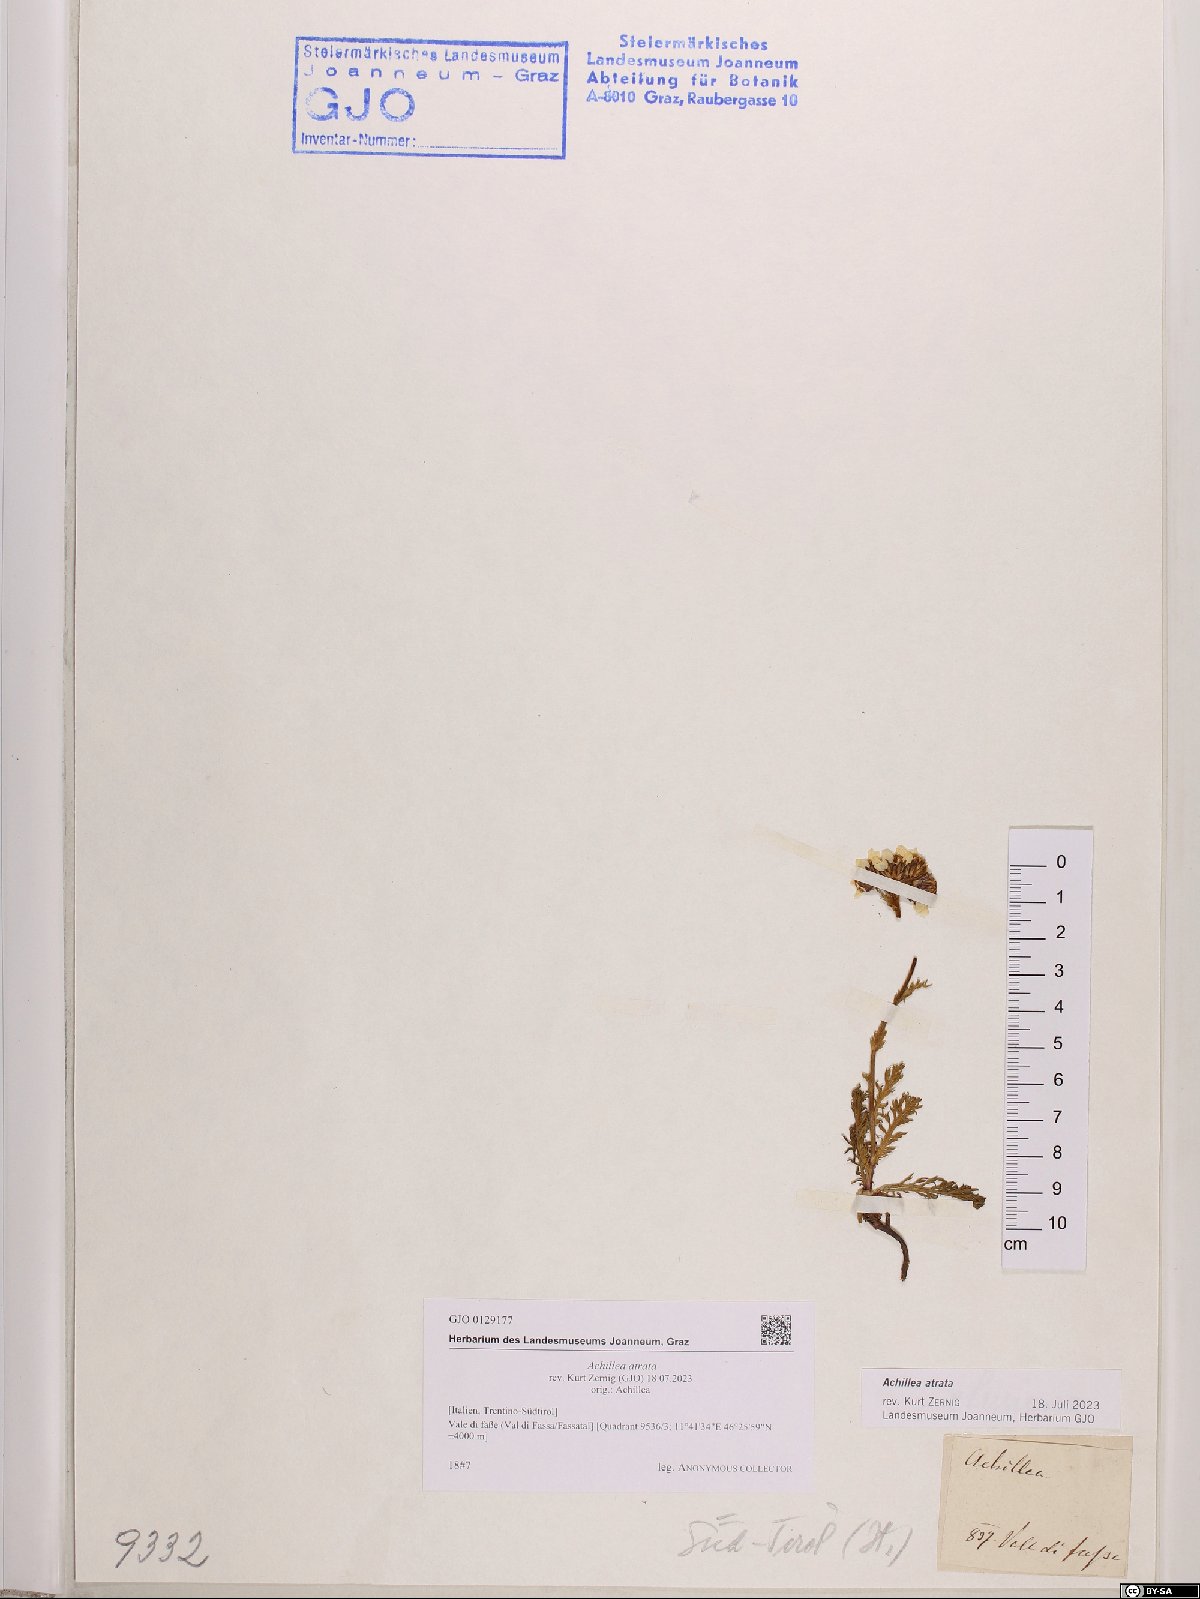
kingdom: Plantae
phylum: Tracheophyta
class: Magnoliopsida
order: Asterales
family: Asteraceae
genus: Achillea
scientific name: Achillea atrata
